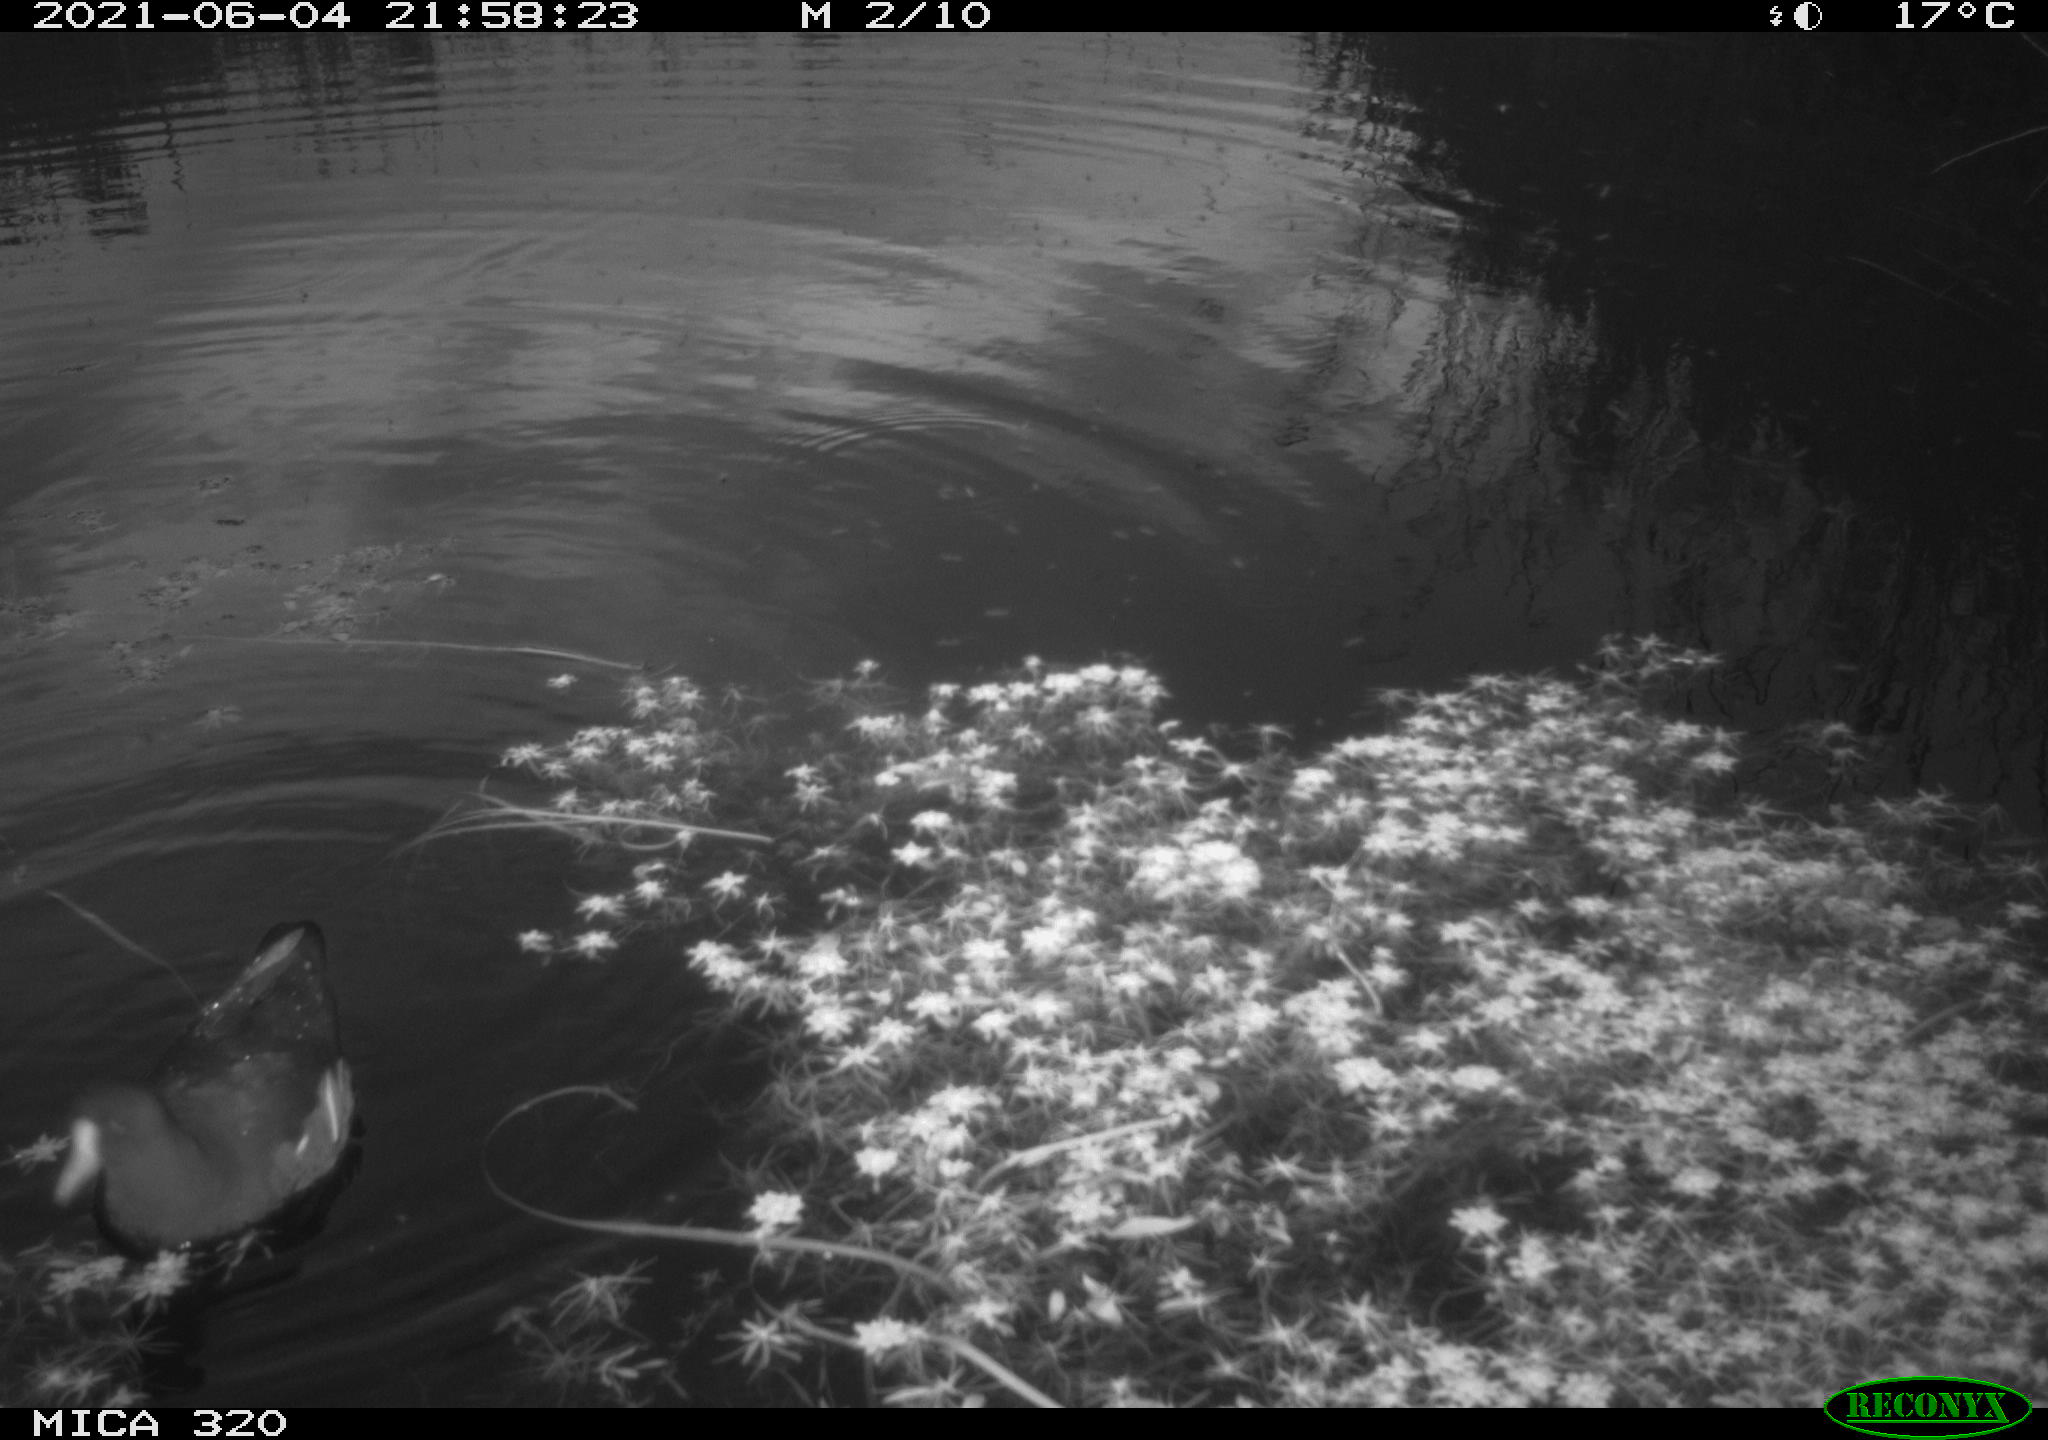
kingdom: Animalia
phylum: Chordata
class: Aves
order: Gruiformes
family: Rallidae
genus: Gallinula
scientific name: Gallinula chloropus
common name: Common moorhen
